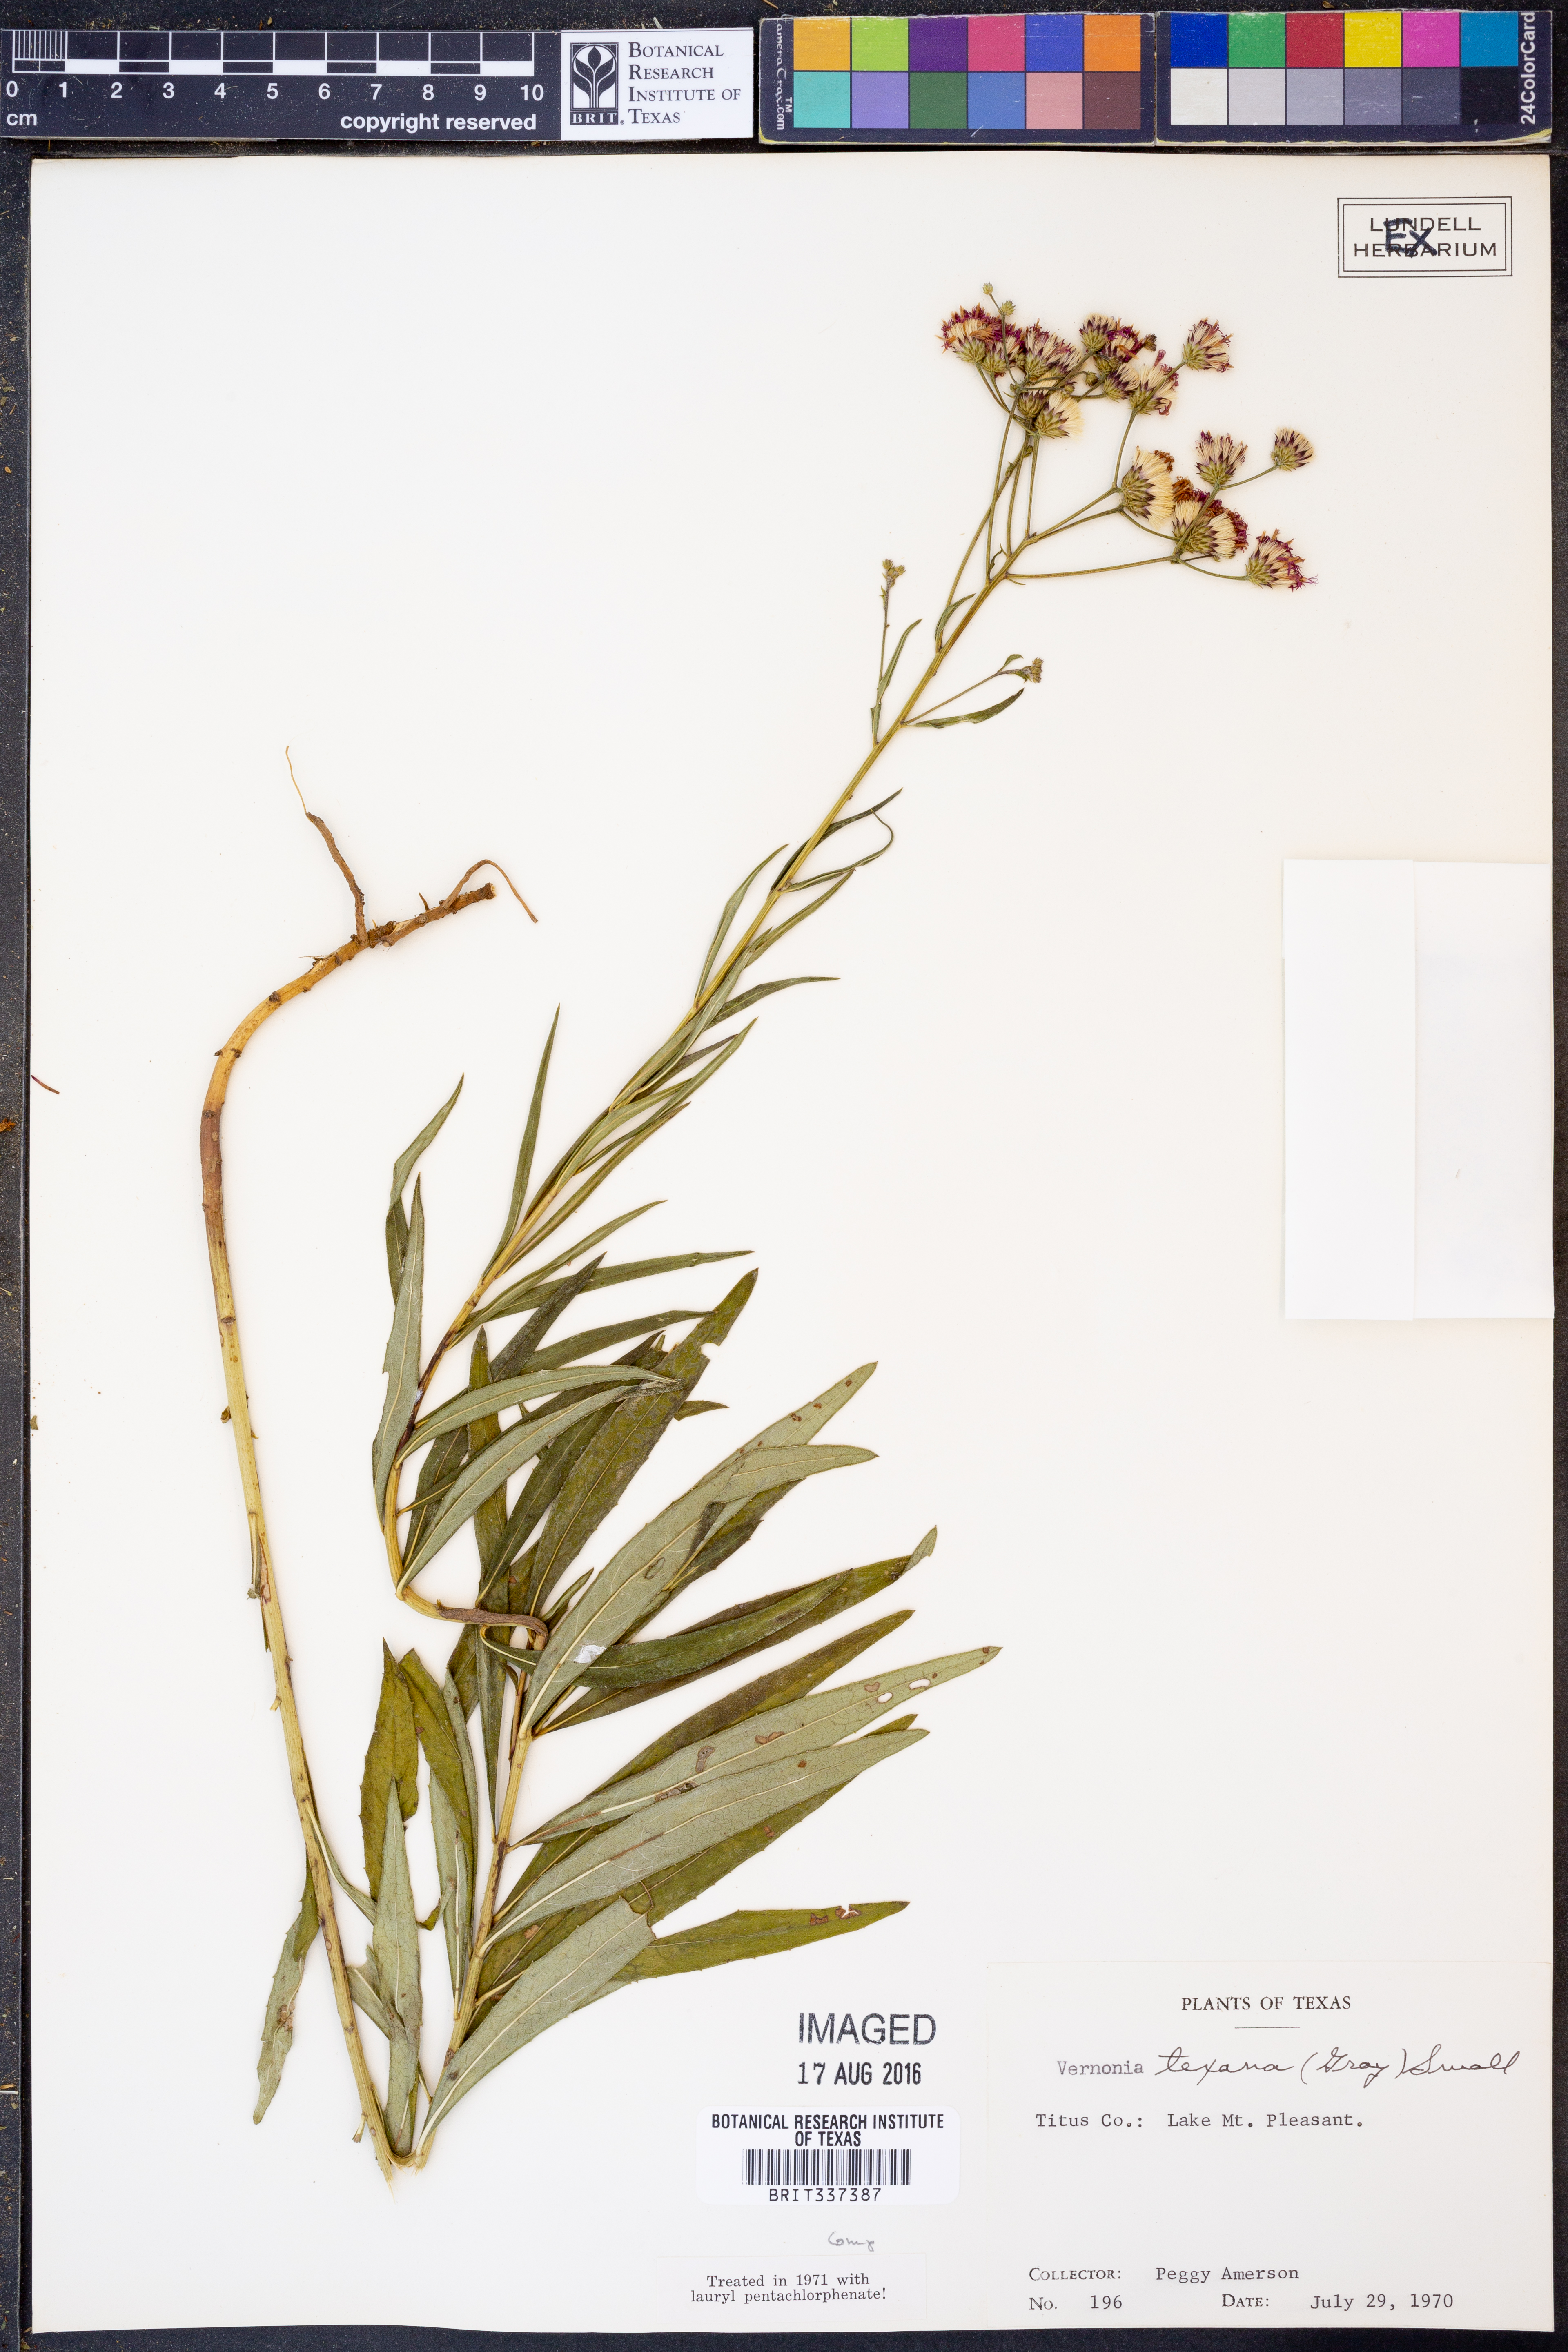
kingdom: Plantae
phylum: Tracheophyta
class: Magnoliopsida
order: Asterales
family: Asteraceae
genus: Vernonia
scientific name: Vernonia texana
